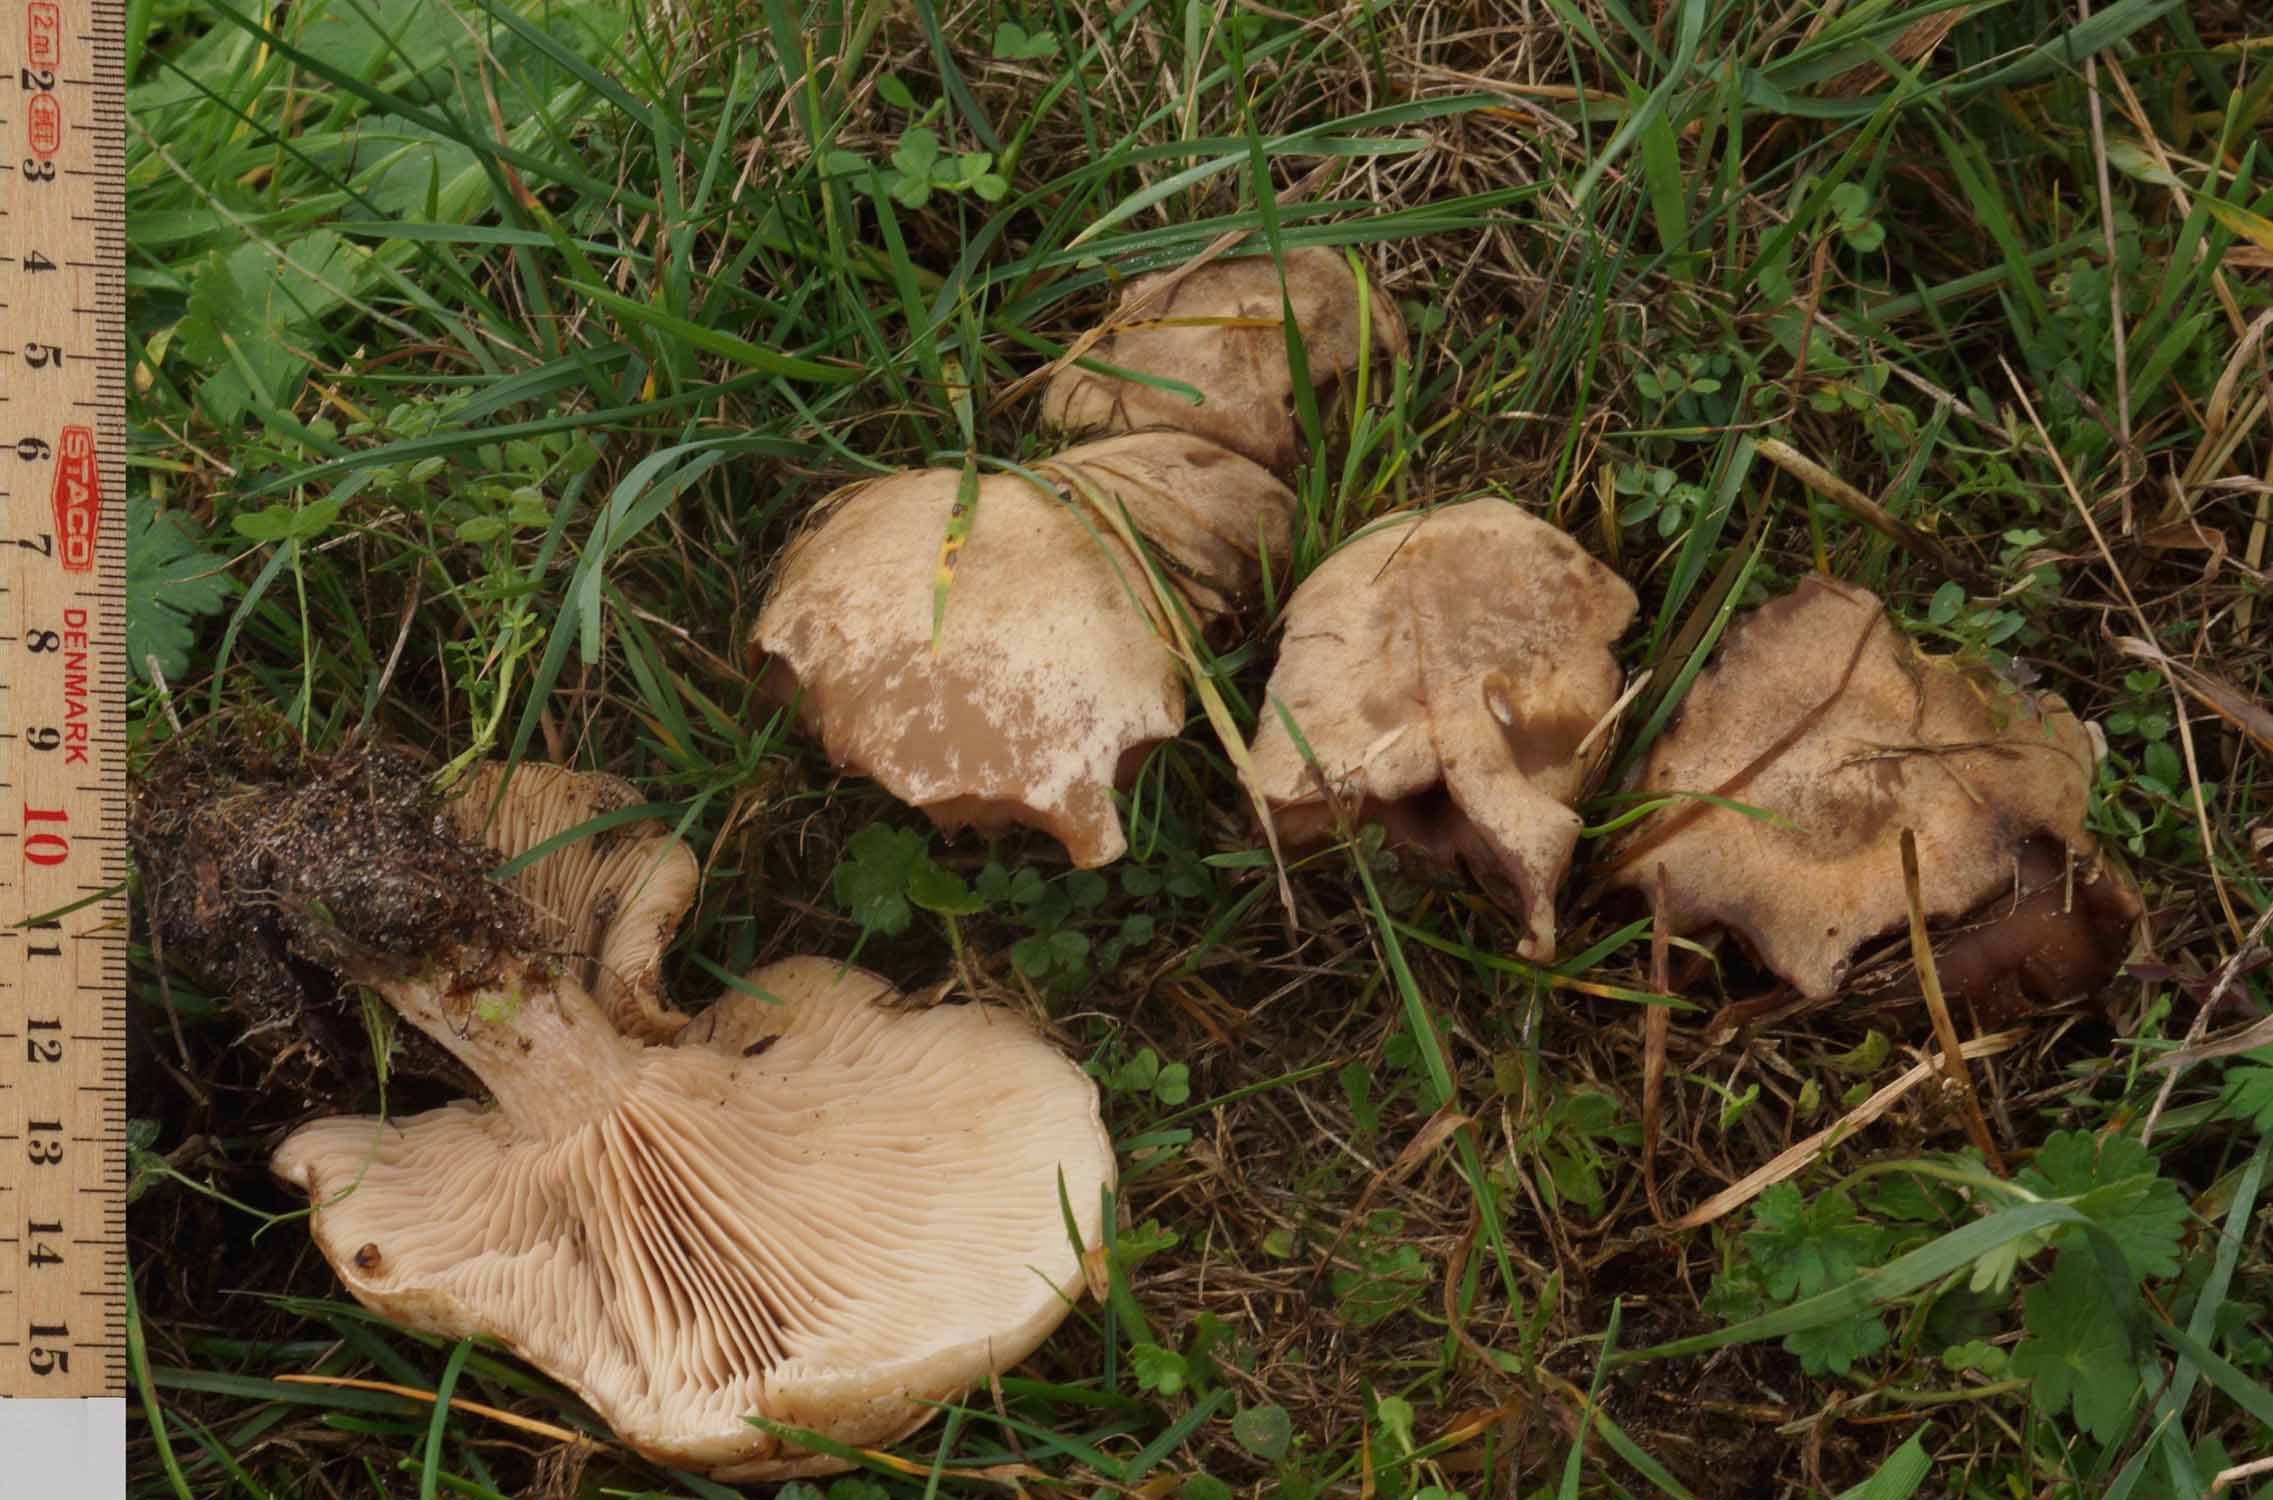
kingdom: Fungi
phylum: Basidiomycota
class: Agaricomycetes
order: Agaricales
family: Tricholomataceae
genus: Lepista
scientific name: Lepista irina
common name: violduftende hekseringshat
